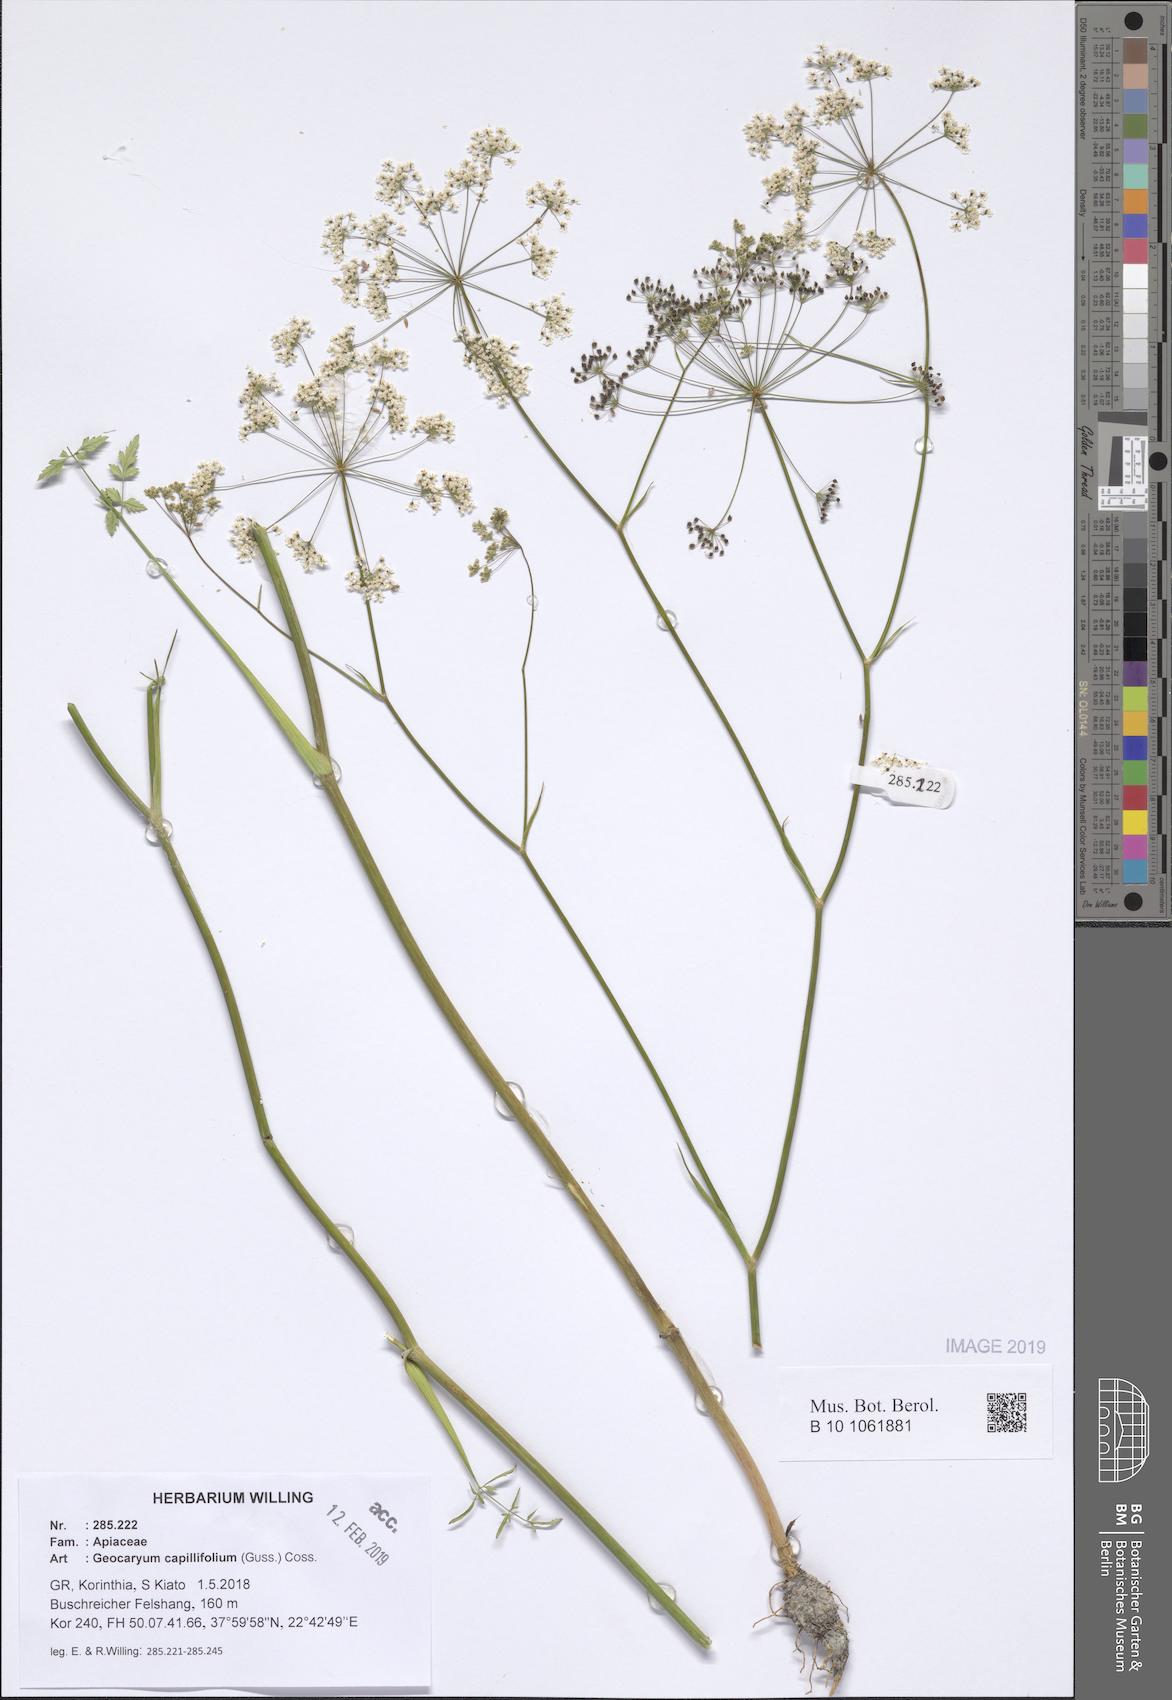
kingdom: Plantae
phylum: Tracheophyta
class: Magnoliopsida
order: Apiales
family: Apiaceae
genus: Geocaryum
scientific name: Geocaryum capillifolium
